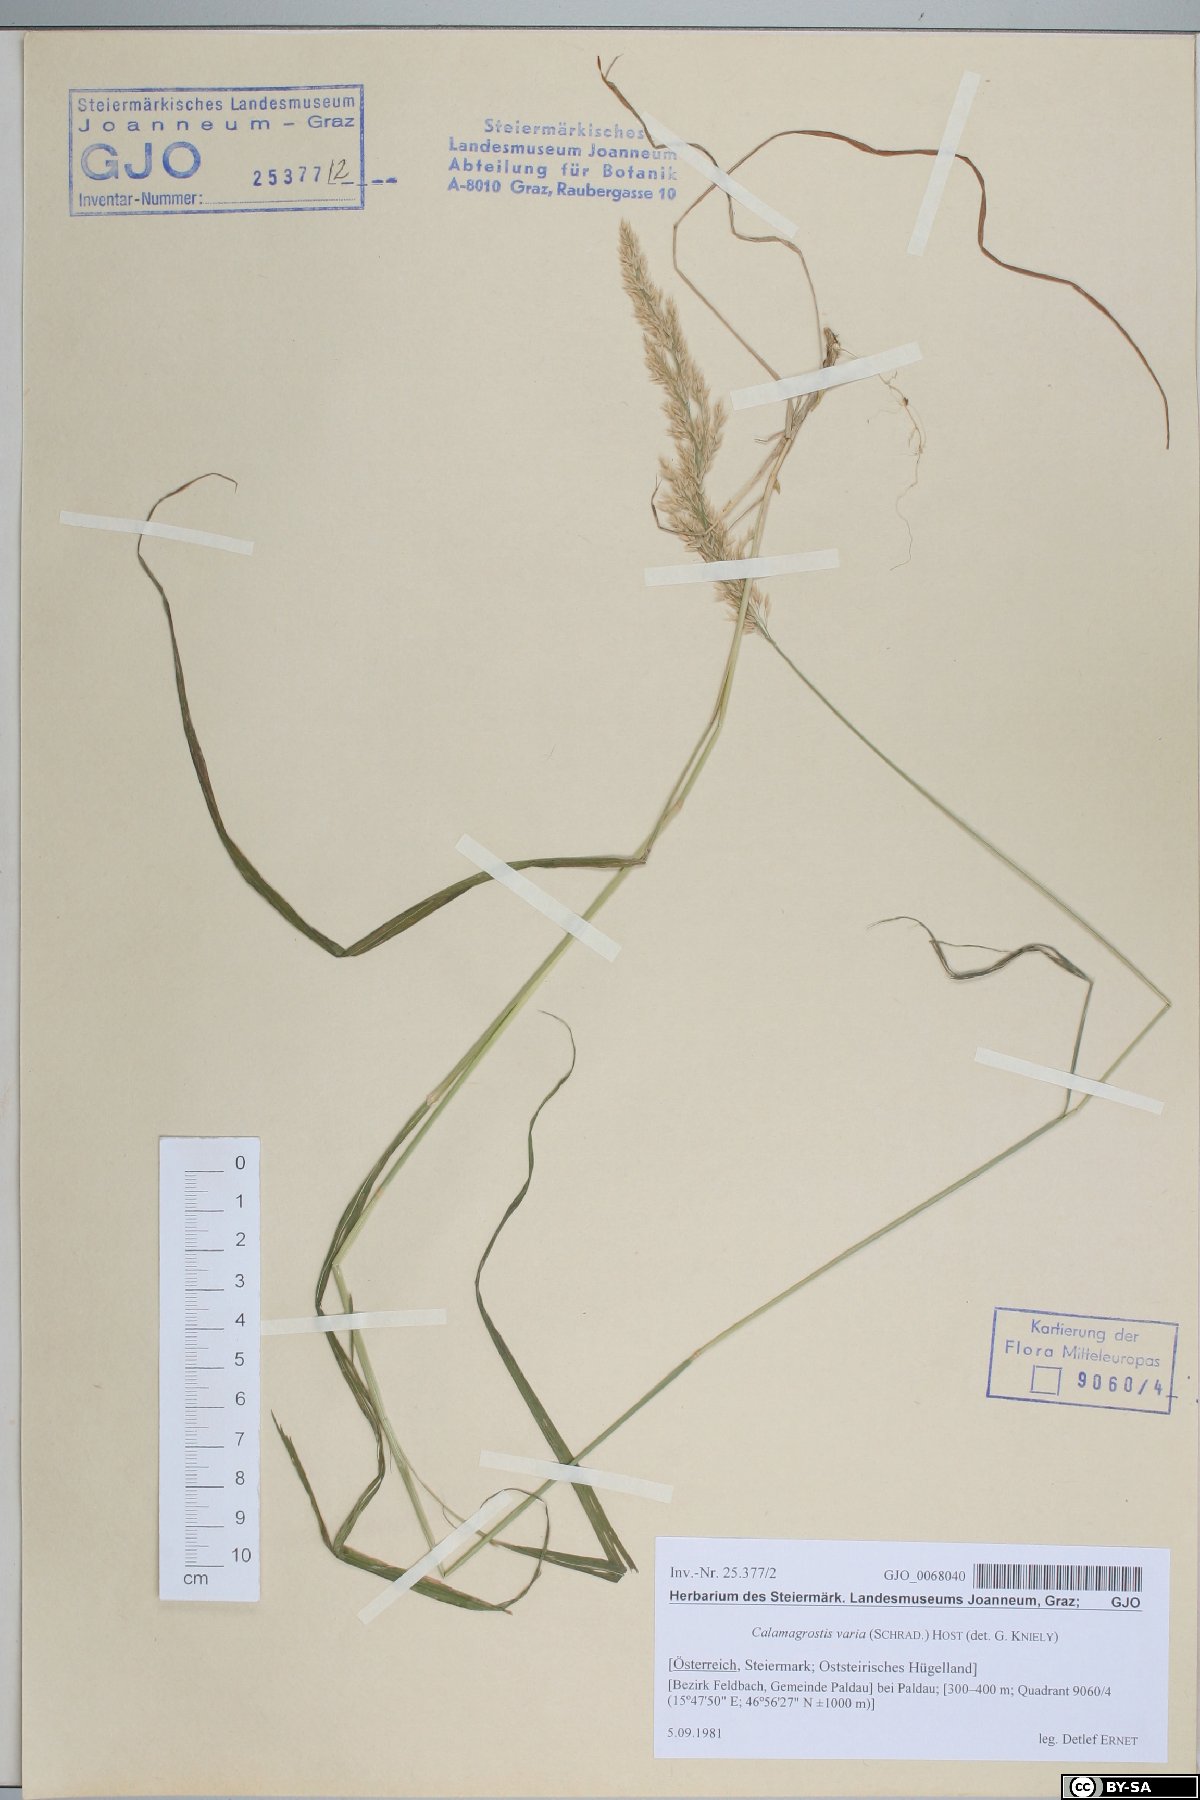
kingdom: Plantae
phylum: Tracheophyta
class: Liliopsida
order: Poales
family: Poaceae
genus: Calamagrostis
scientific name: Calamagrostis varia
